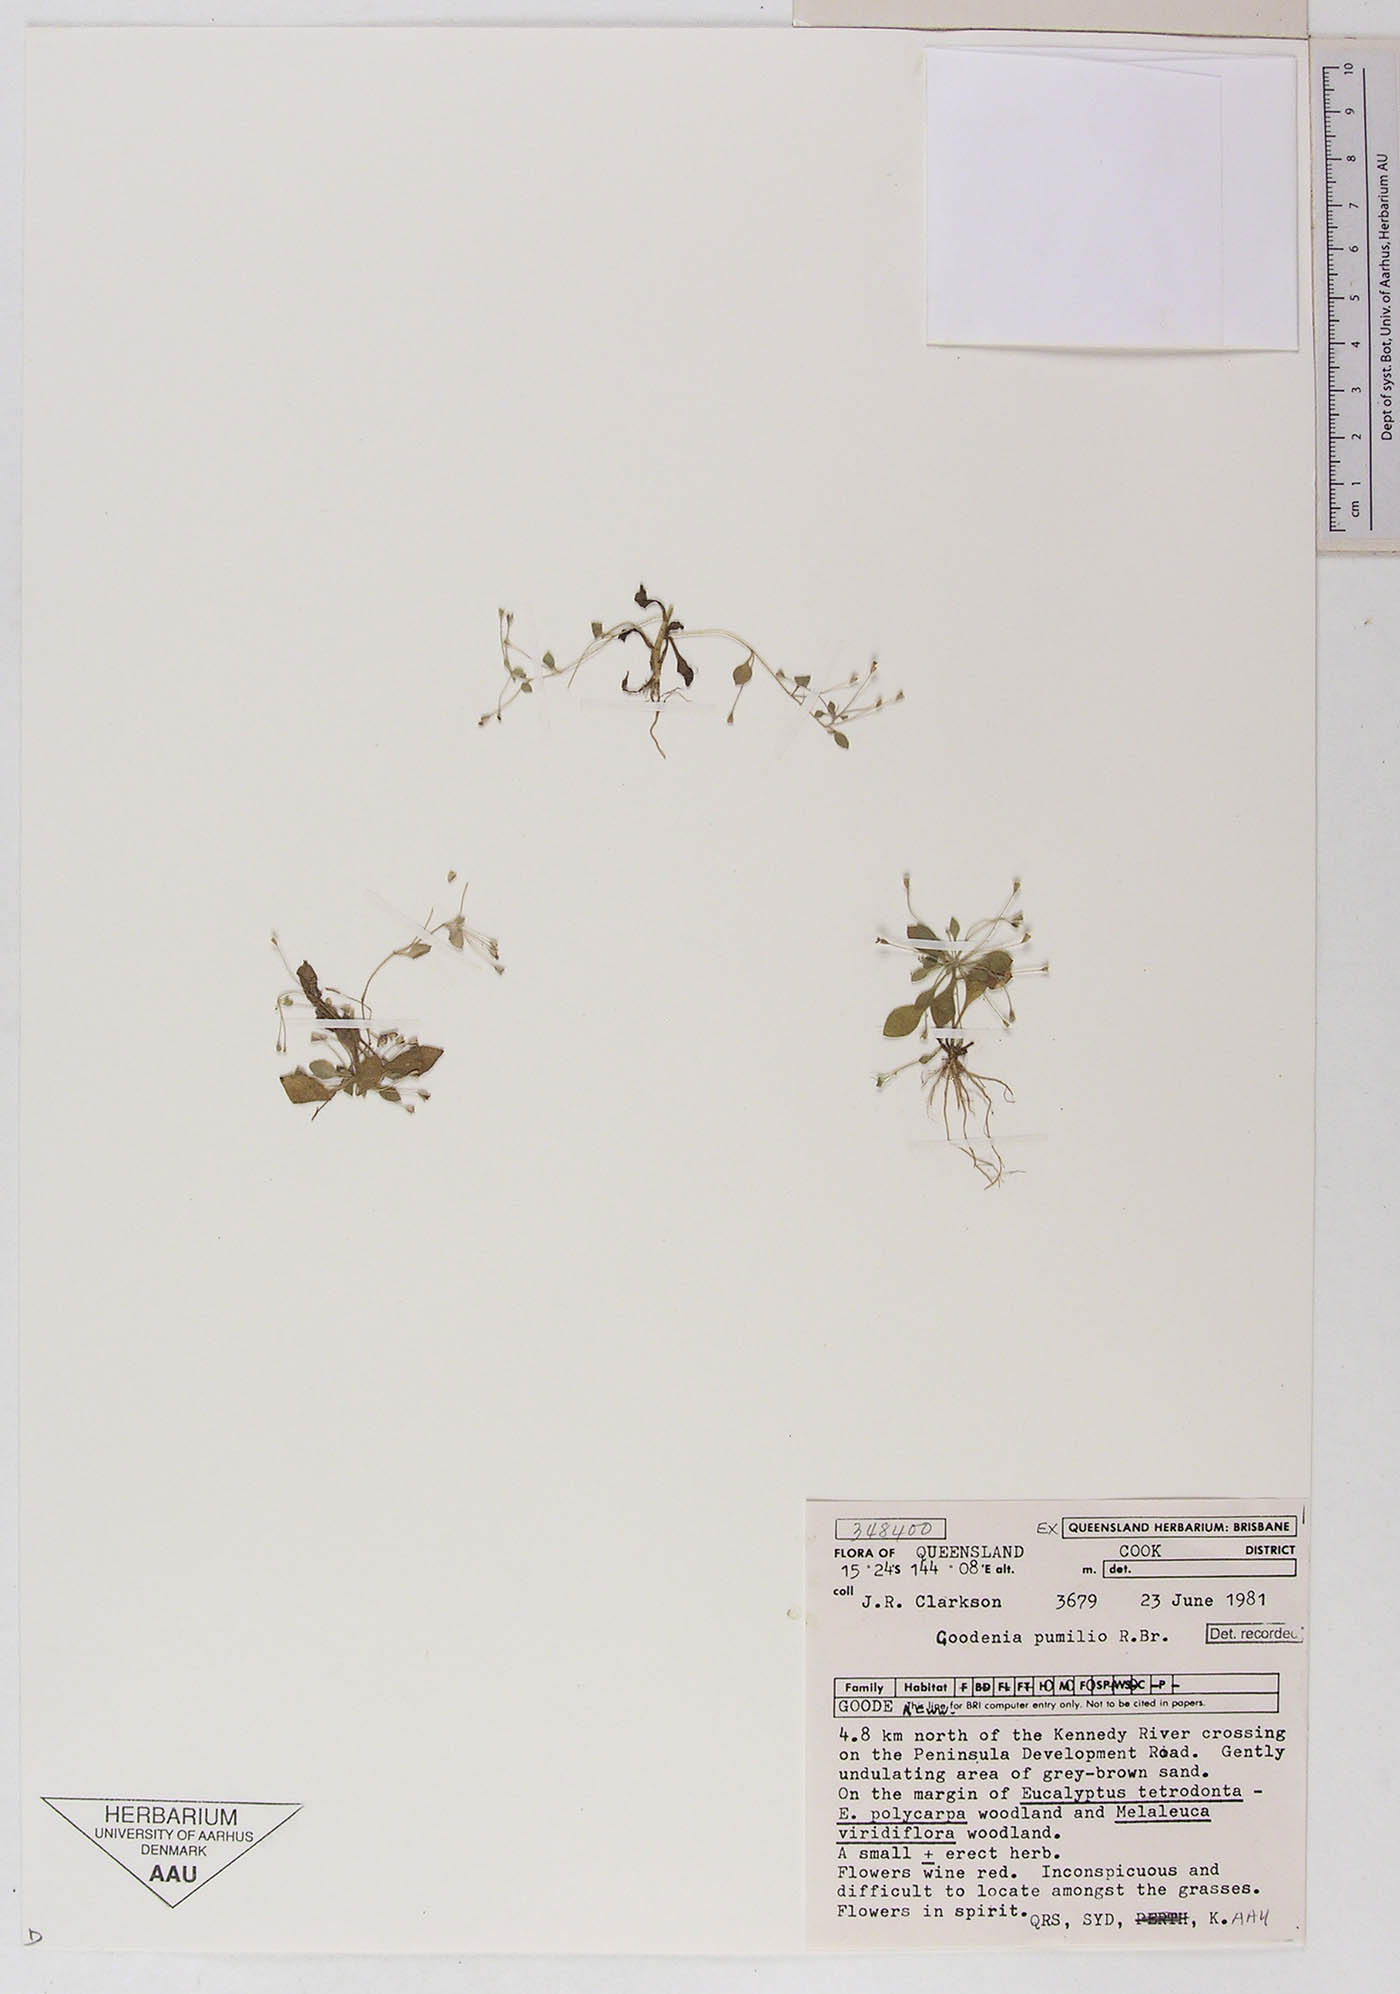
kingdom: Plantae
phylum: Tracheophyta
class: Magnoliopsida
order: Asterales
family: Goodeniaceae
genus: Goodenia
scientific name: Goodenia pumilio
